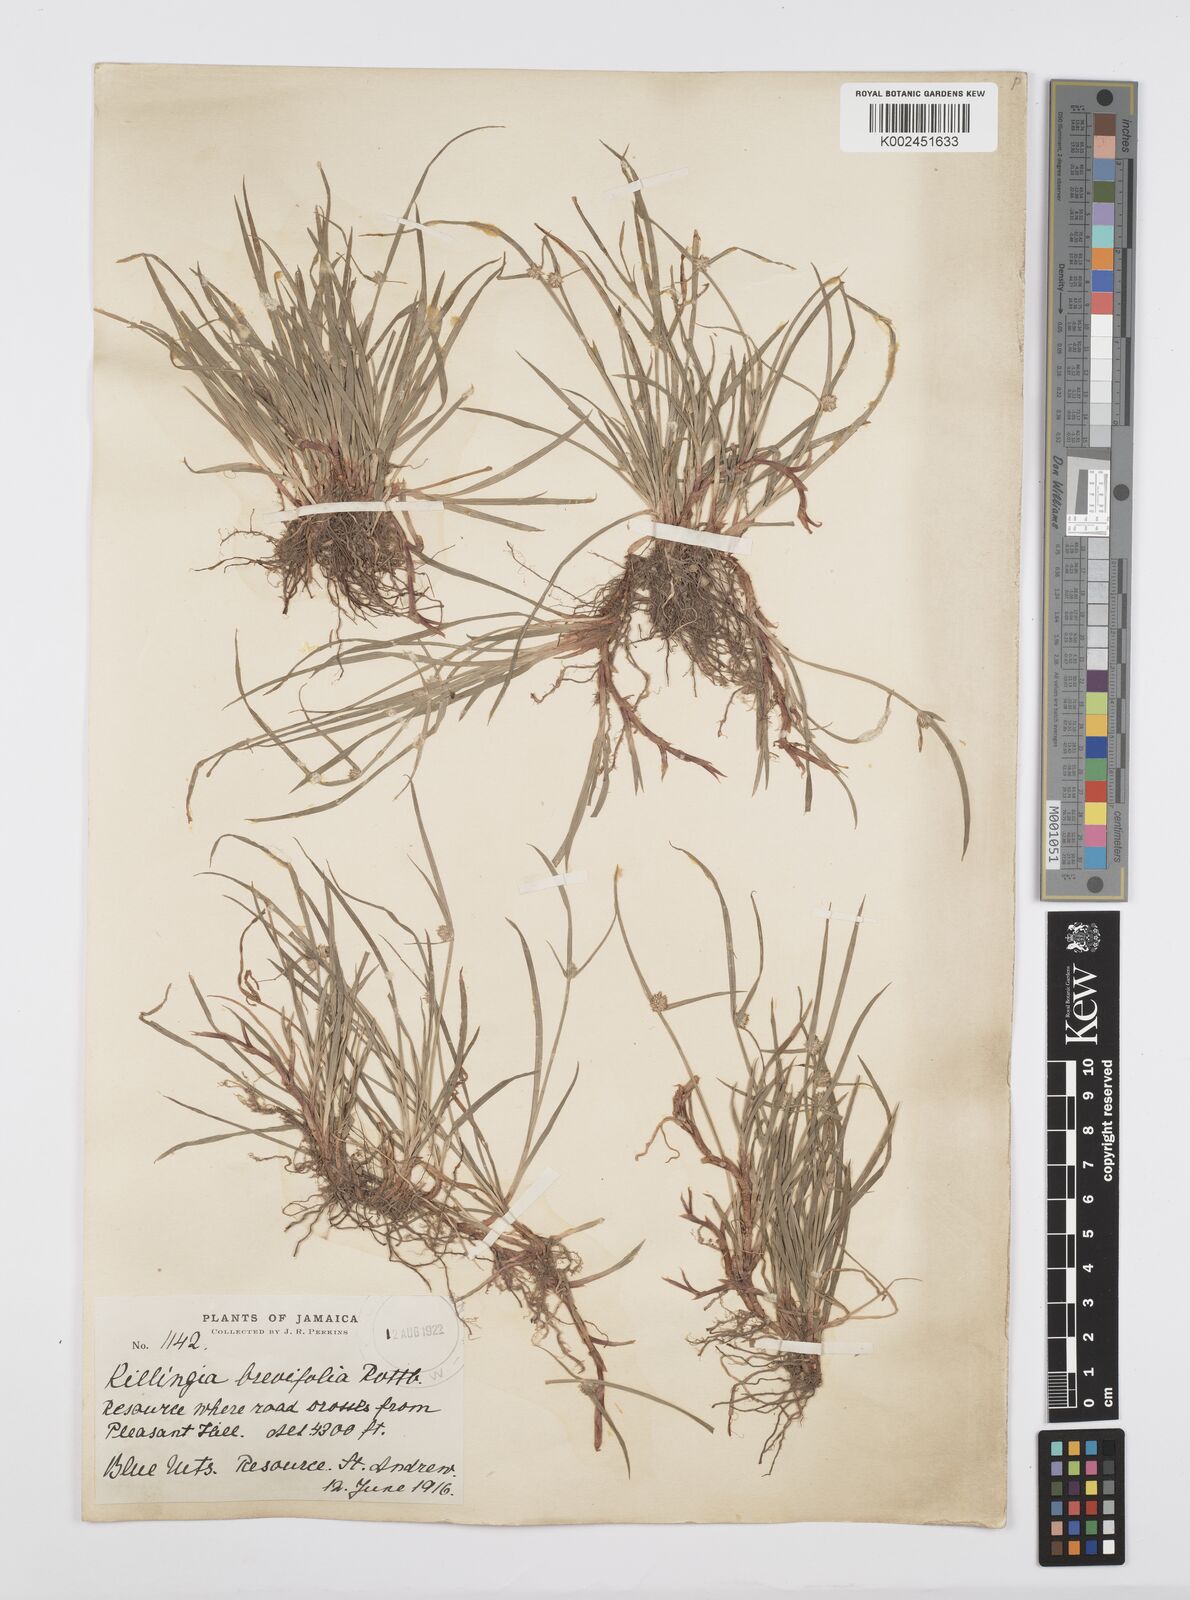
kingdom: Plantae
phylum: Tracheophyta
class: Liliopsida
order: Poales
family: Cyperaceae
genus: Cyperus
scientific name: Cyperus brevifolius
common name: Globe kyllinga
